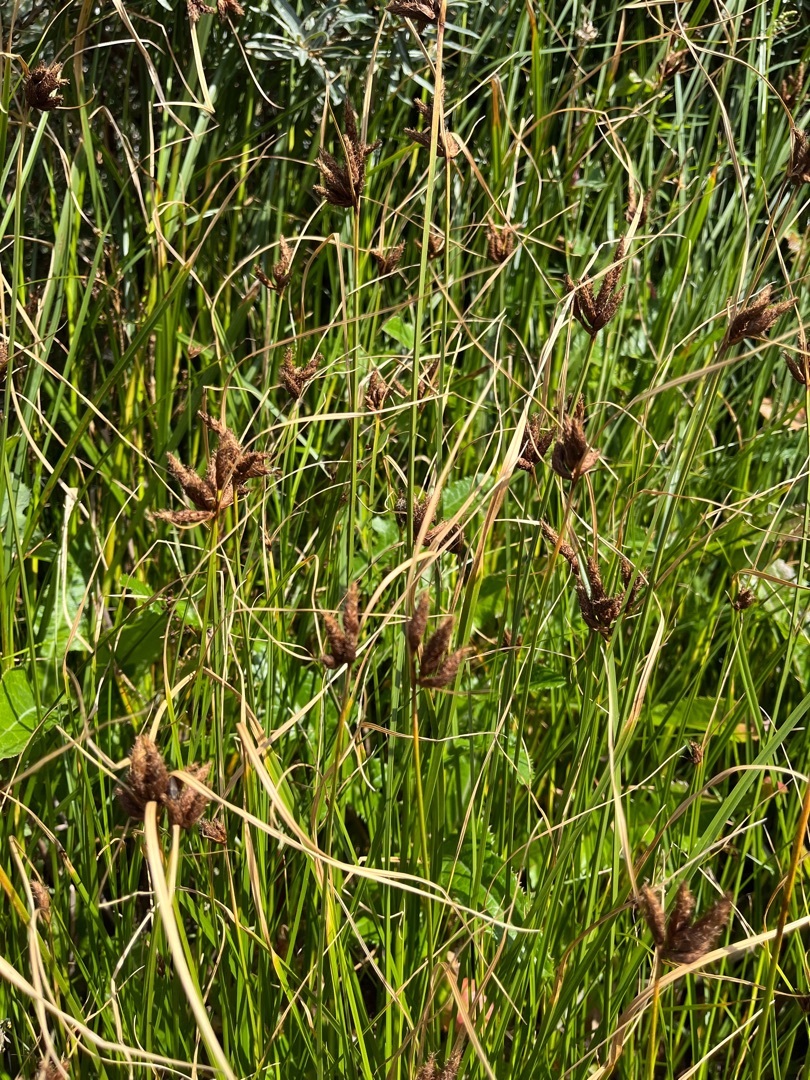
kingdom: Plantae
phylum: Tracheophyta
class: Liliopsida
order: Poales
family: Cyperaceae
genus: Bolboschoenus
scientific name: Bolboschoenus maritimus
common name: Strand-kogleaks
